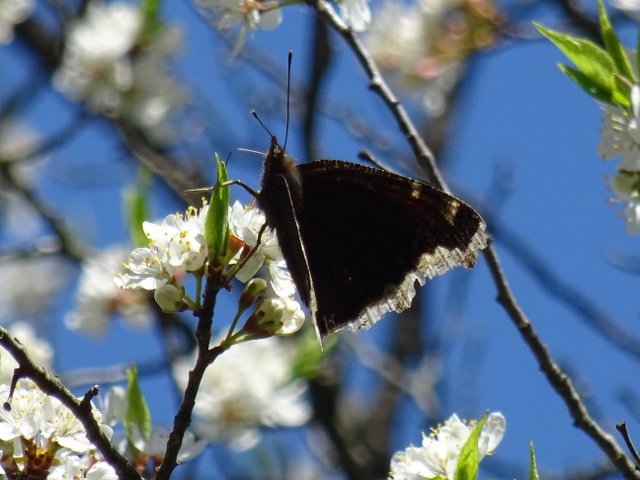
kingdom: Animalia
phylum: Arthropoda
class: Insecta
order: Lepidoptera
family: Nymphalidae
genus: Nymphalis
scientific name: Nymphalis antiopa
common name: Mourning Cloak
